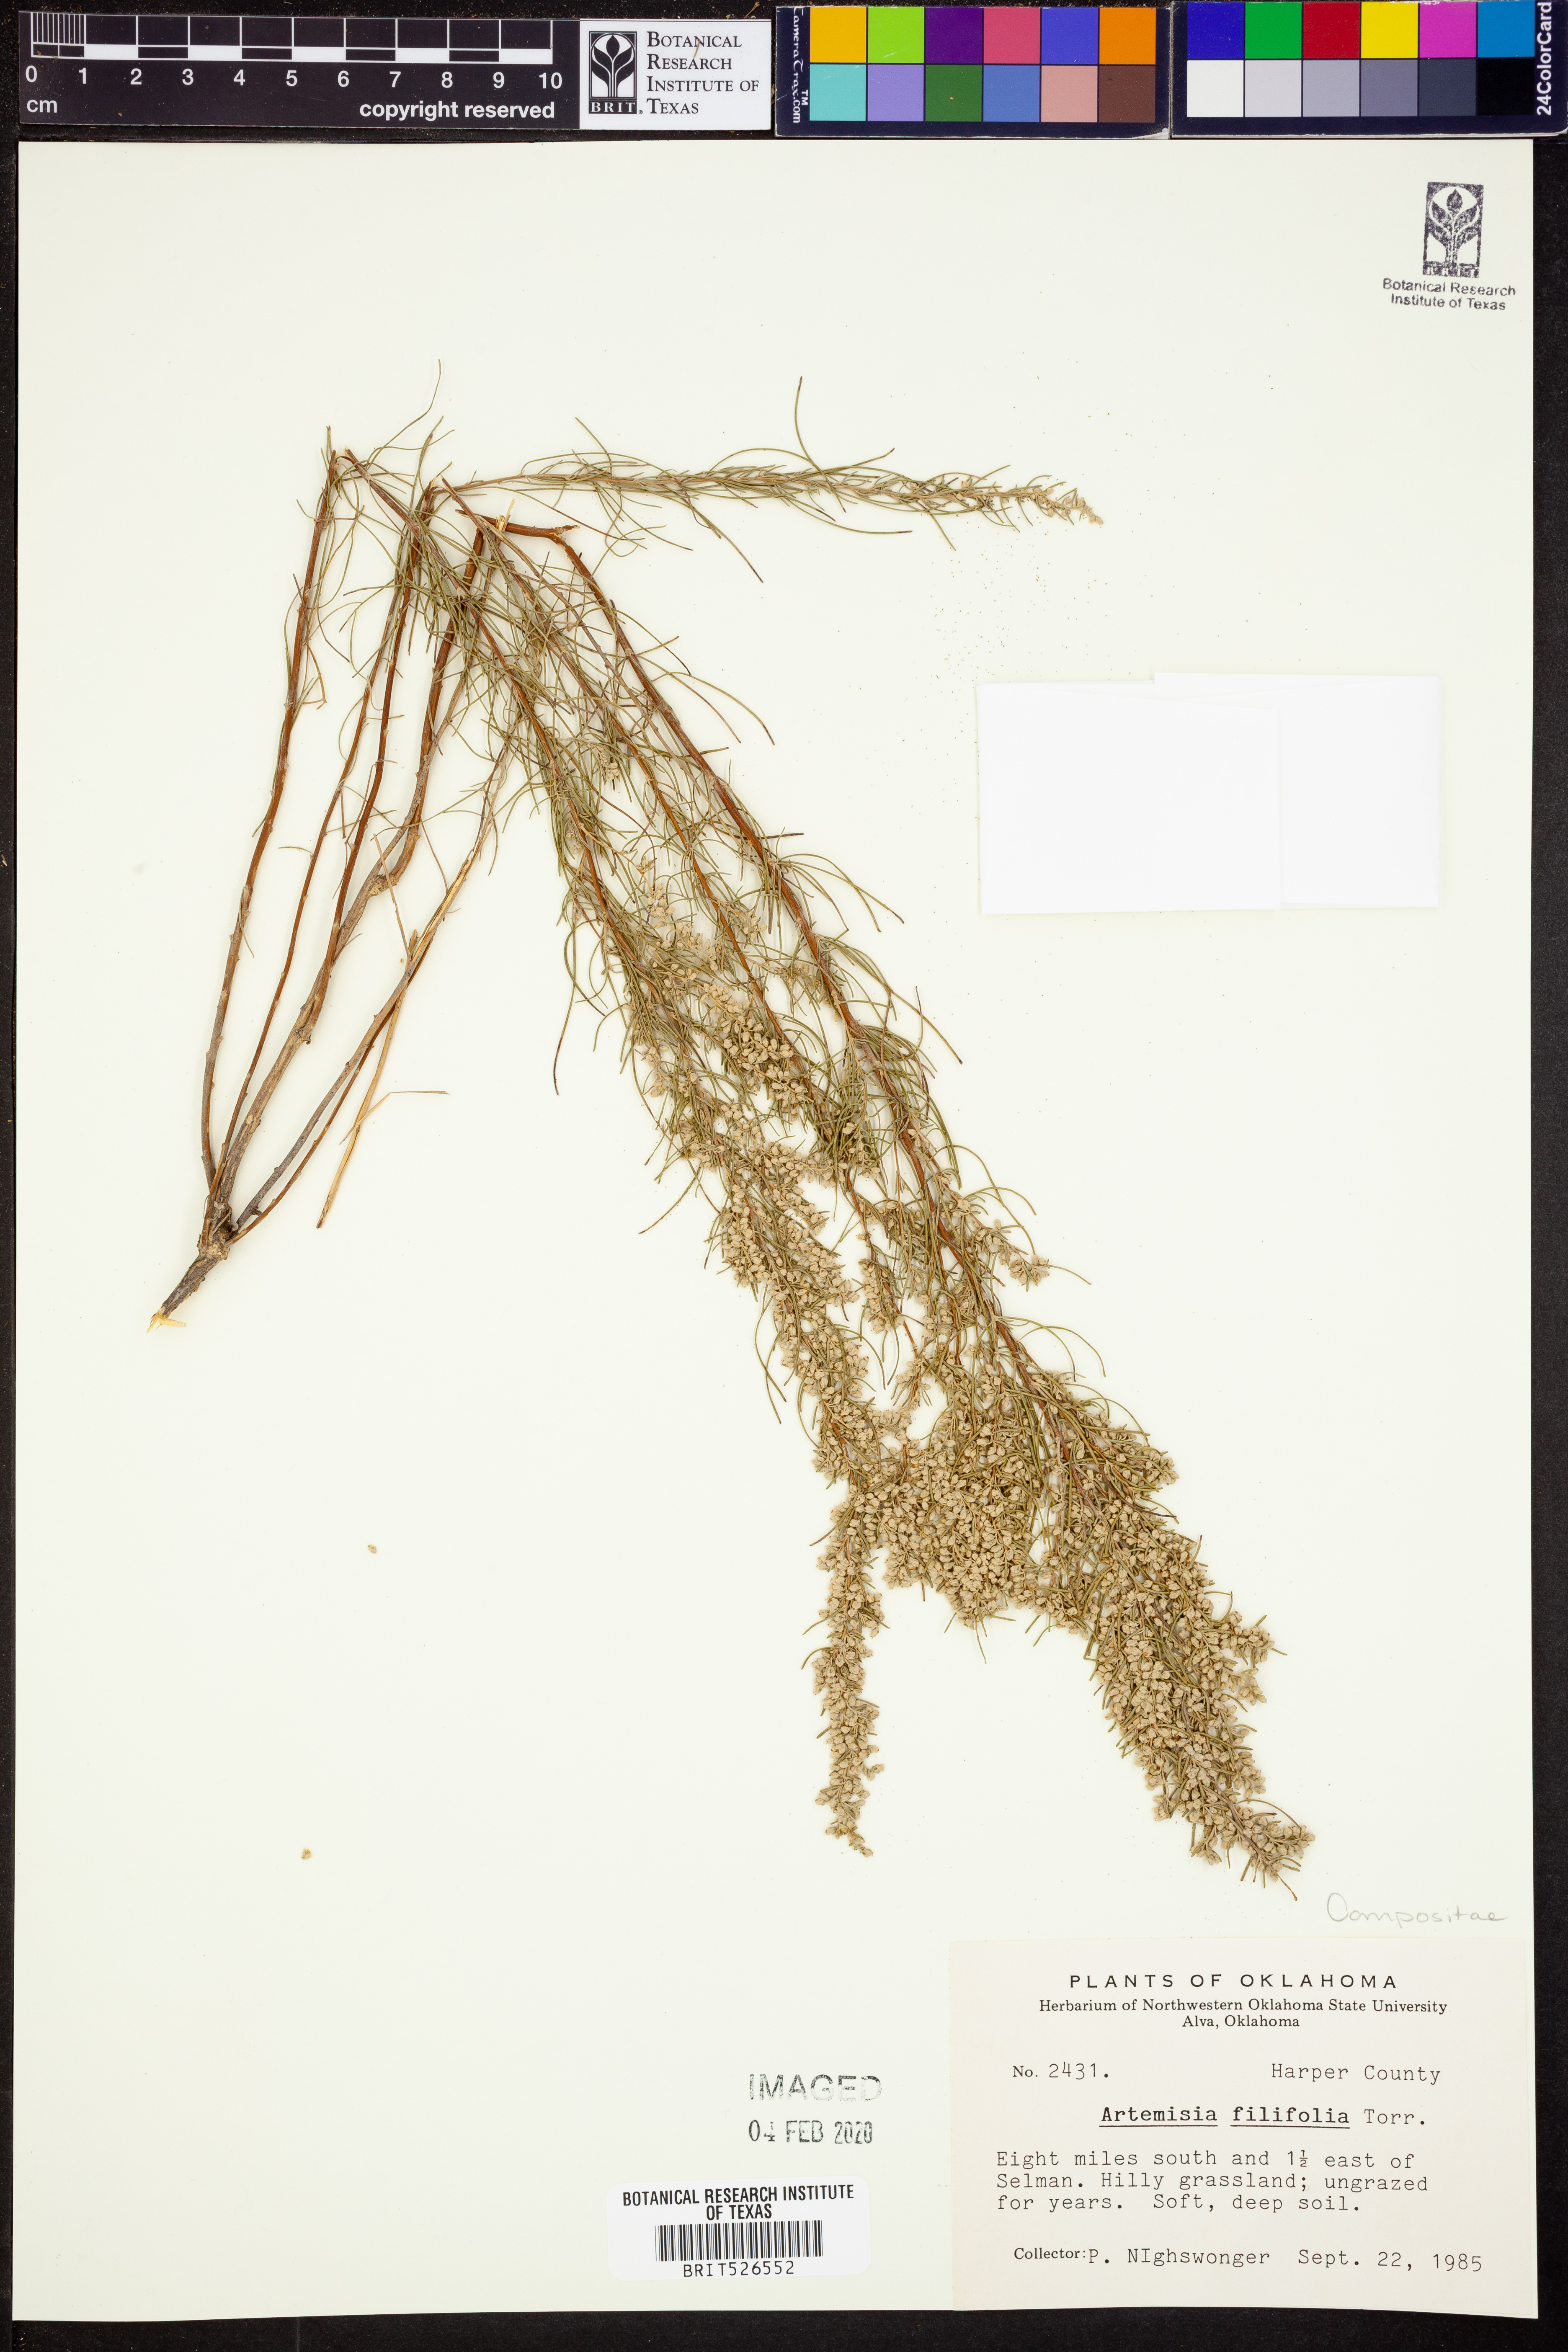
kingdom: Plantae
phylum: Tracheophyta
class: Magnoliopsida
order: Asterales
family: Asteraceae
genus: Artemisia
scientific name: Artemisia filifolia
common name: Sand-sage
